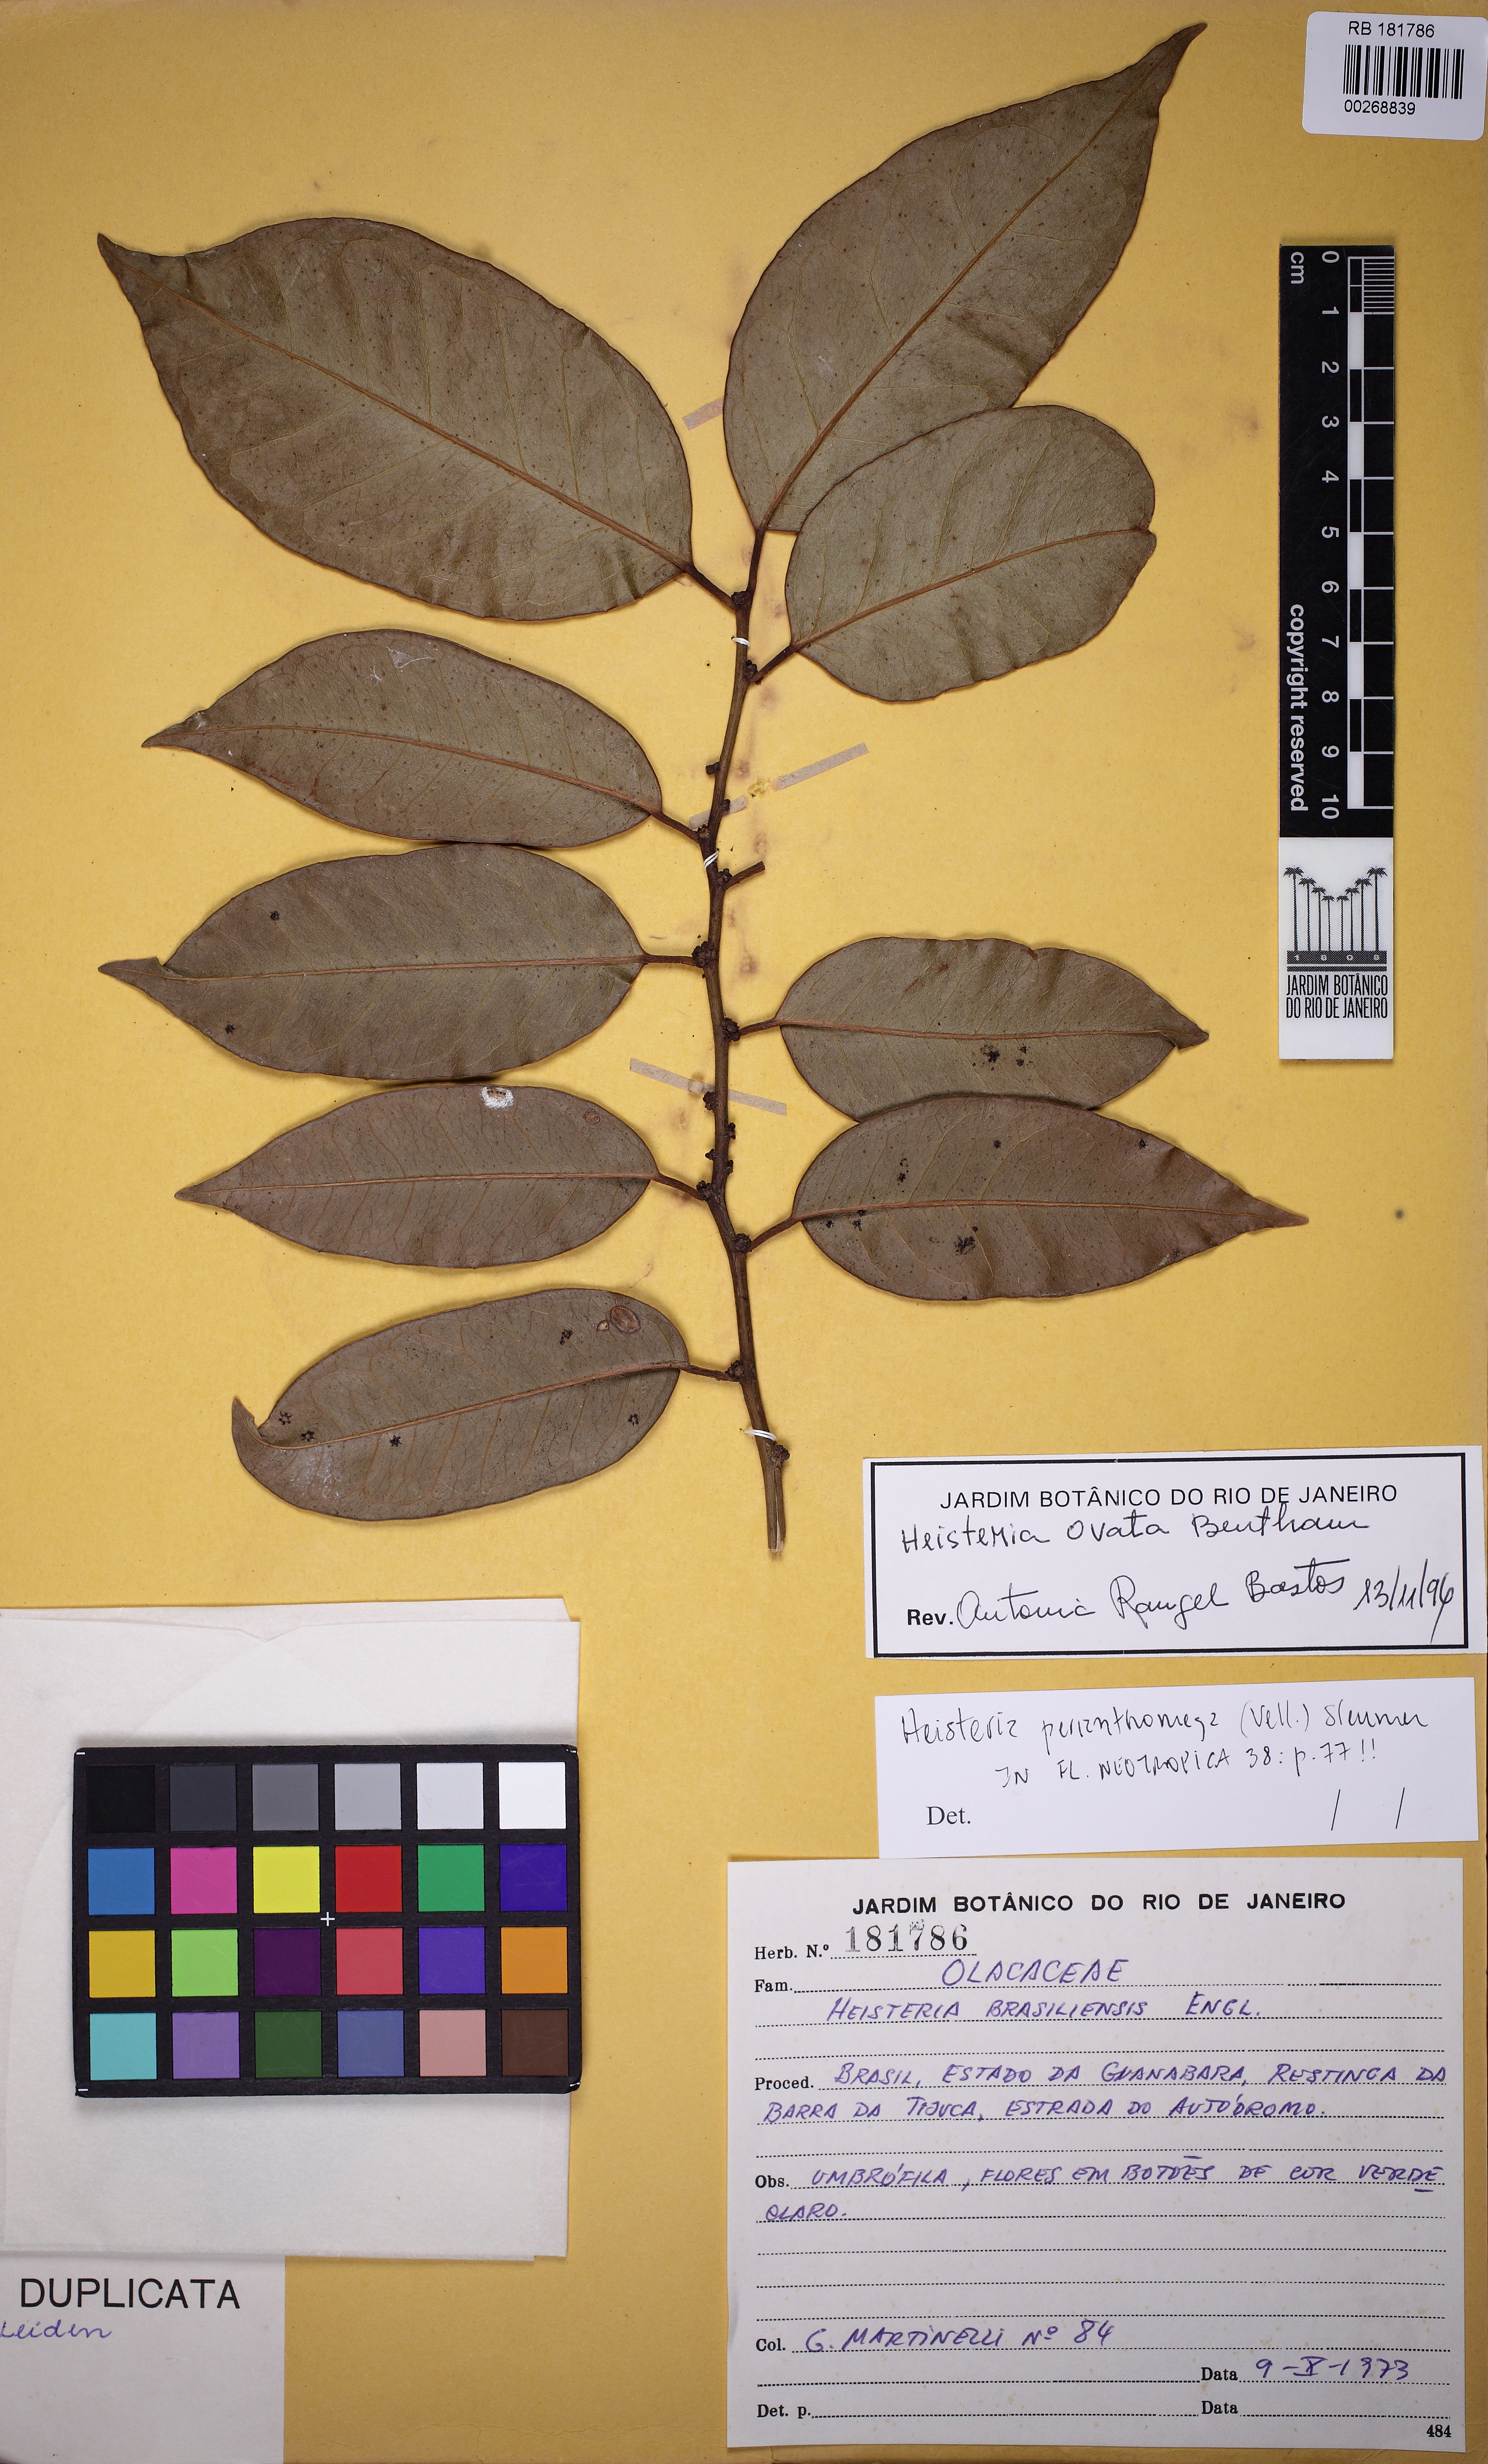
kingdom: Plantae
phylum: Tracheophyta
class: Magnoliopsida
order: Santalales
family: Erythropalaceae
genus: Heisteria
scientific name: Heisteria ovata
